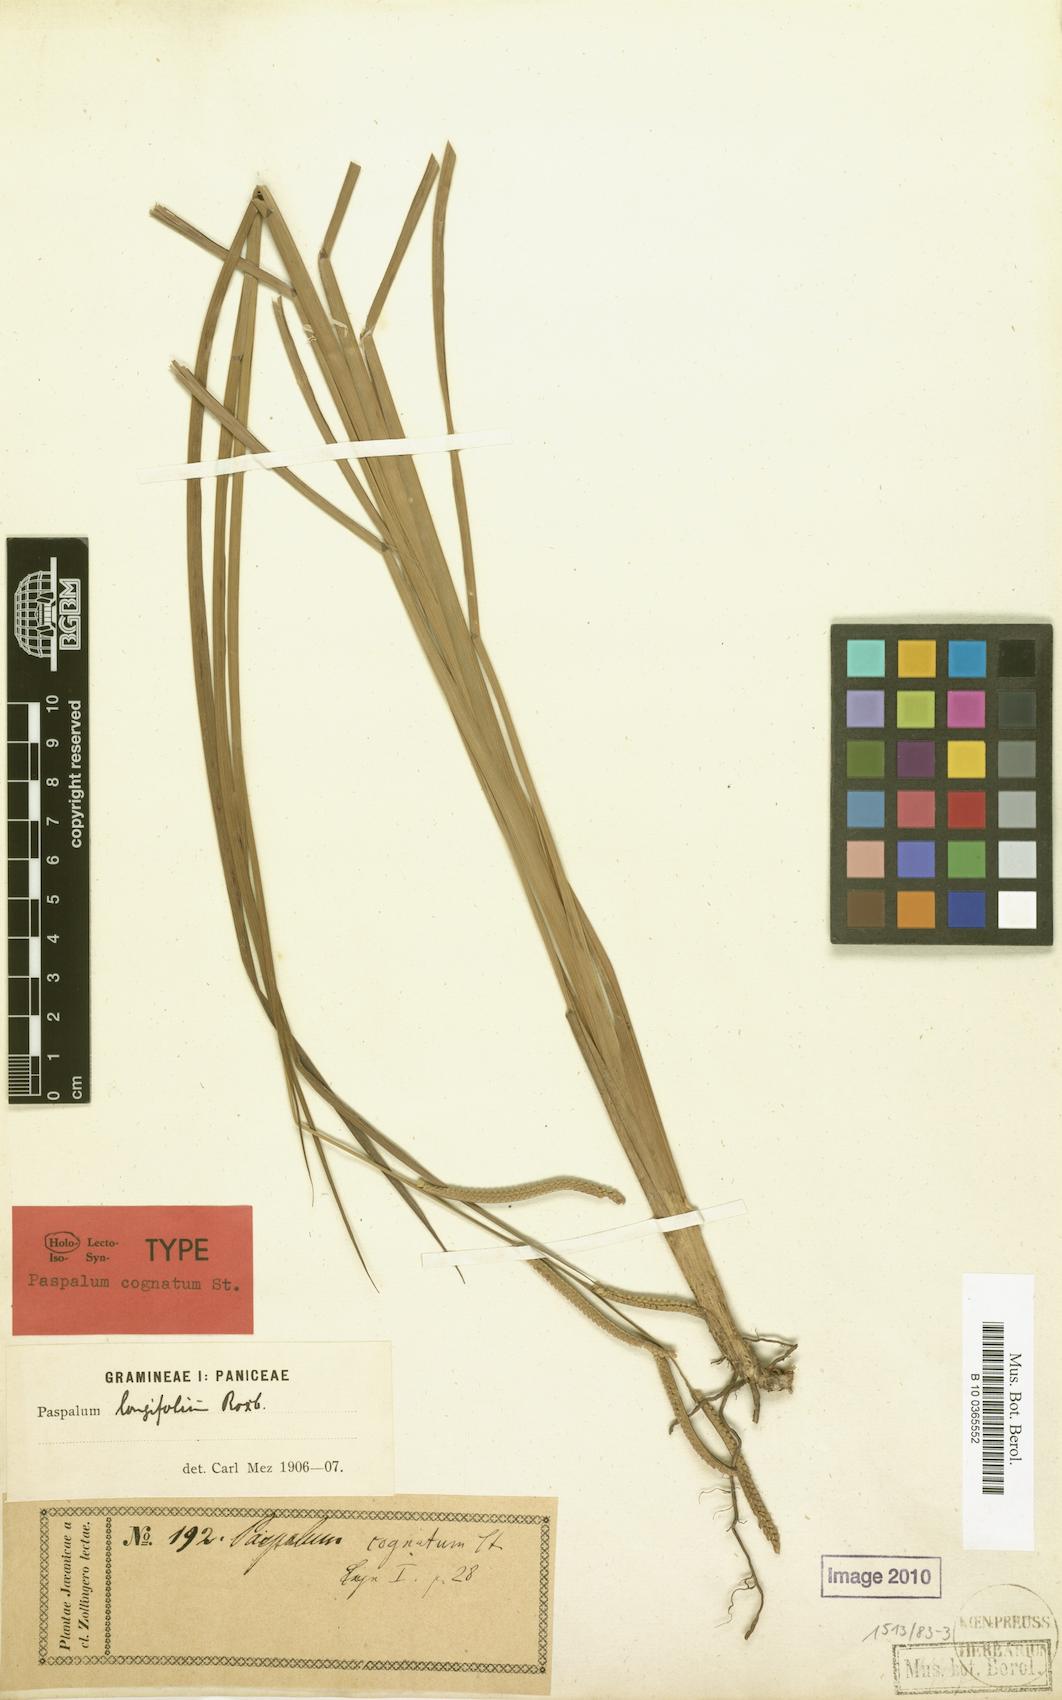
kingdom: Plantae
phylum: Tracheophyta
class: Liliopsida
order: Poales
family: Poaceae
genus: Paspalum
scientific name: Paspalum sumatrense
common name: Long-leaved paspalum
